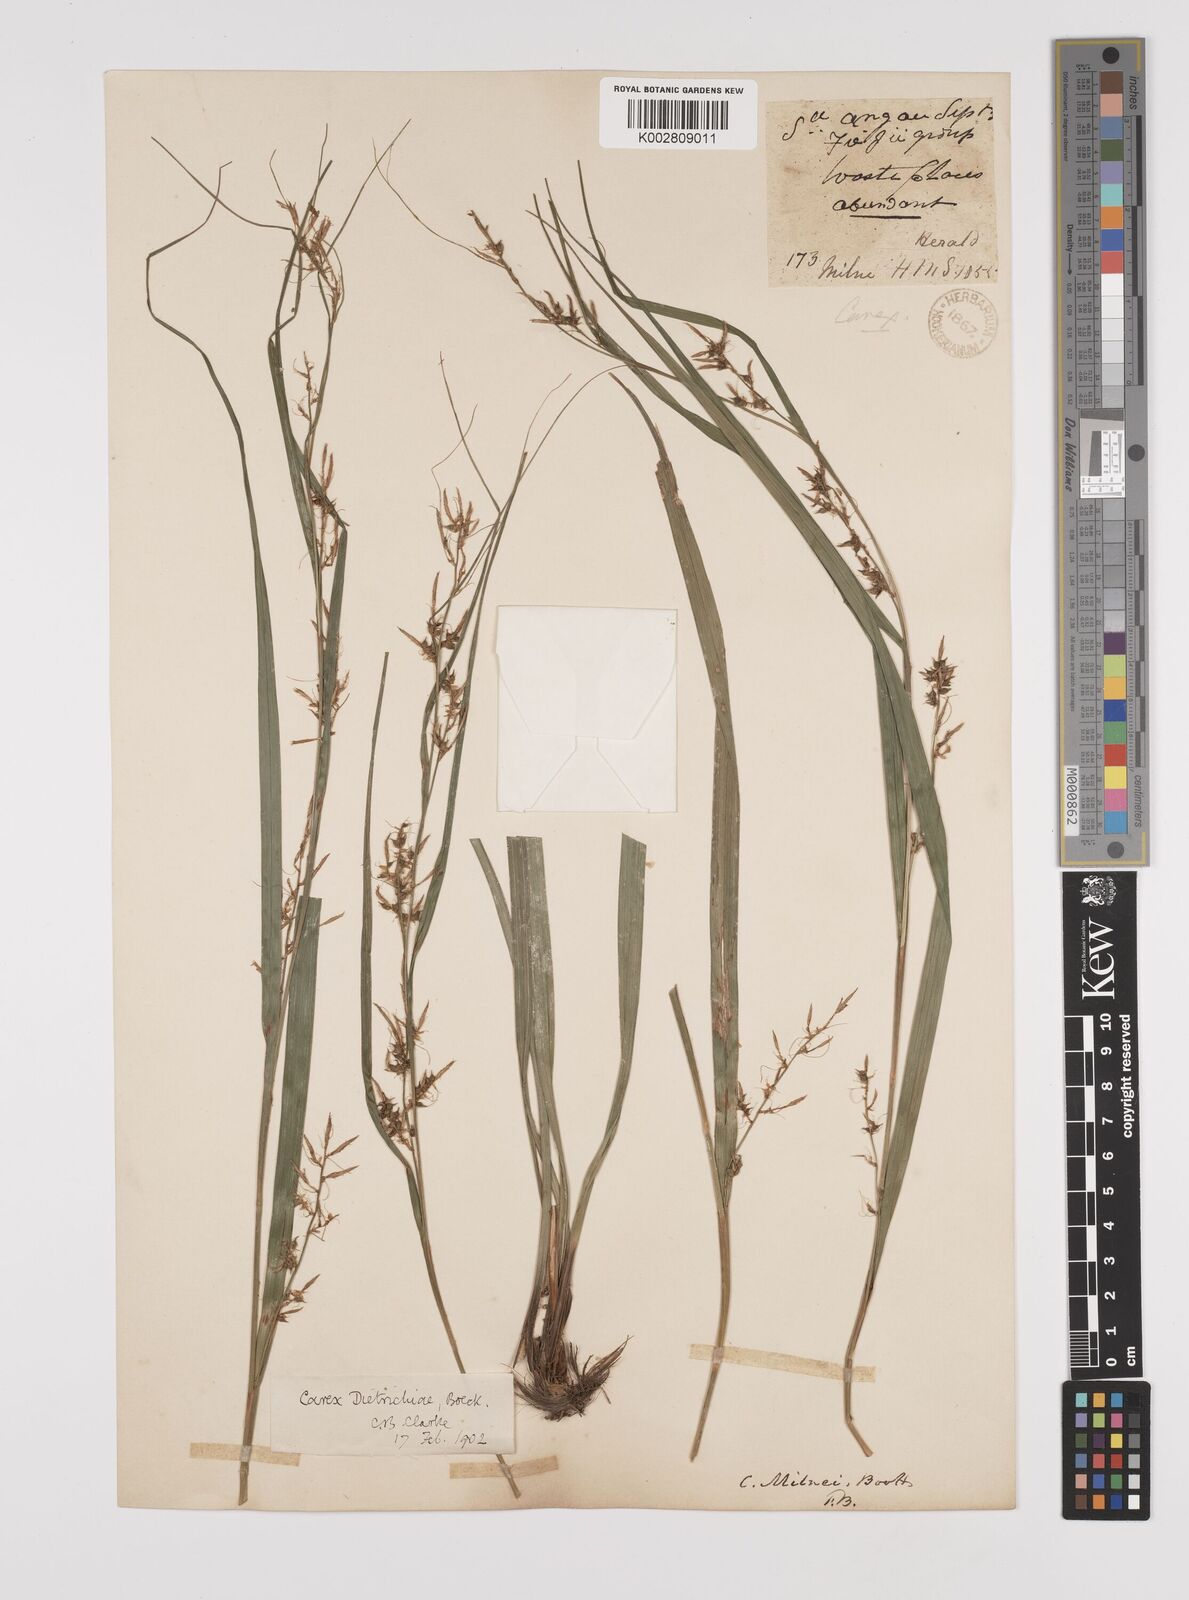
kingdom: Plantae
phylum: Tracheophyta
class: Liliopsida
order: Poales
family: Cyperaceae
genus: Carex
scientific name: Carex indica
